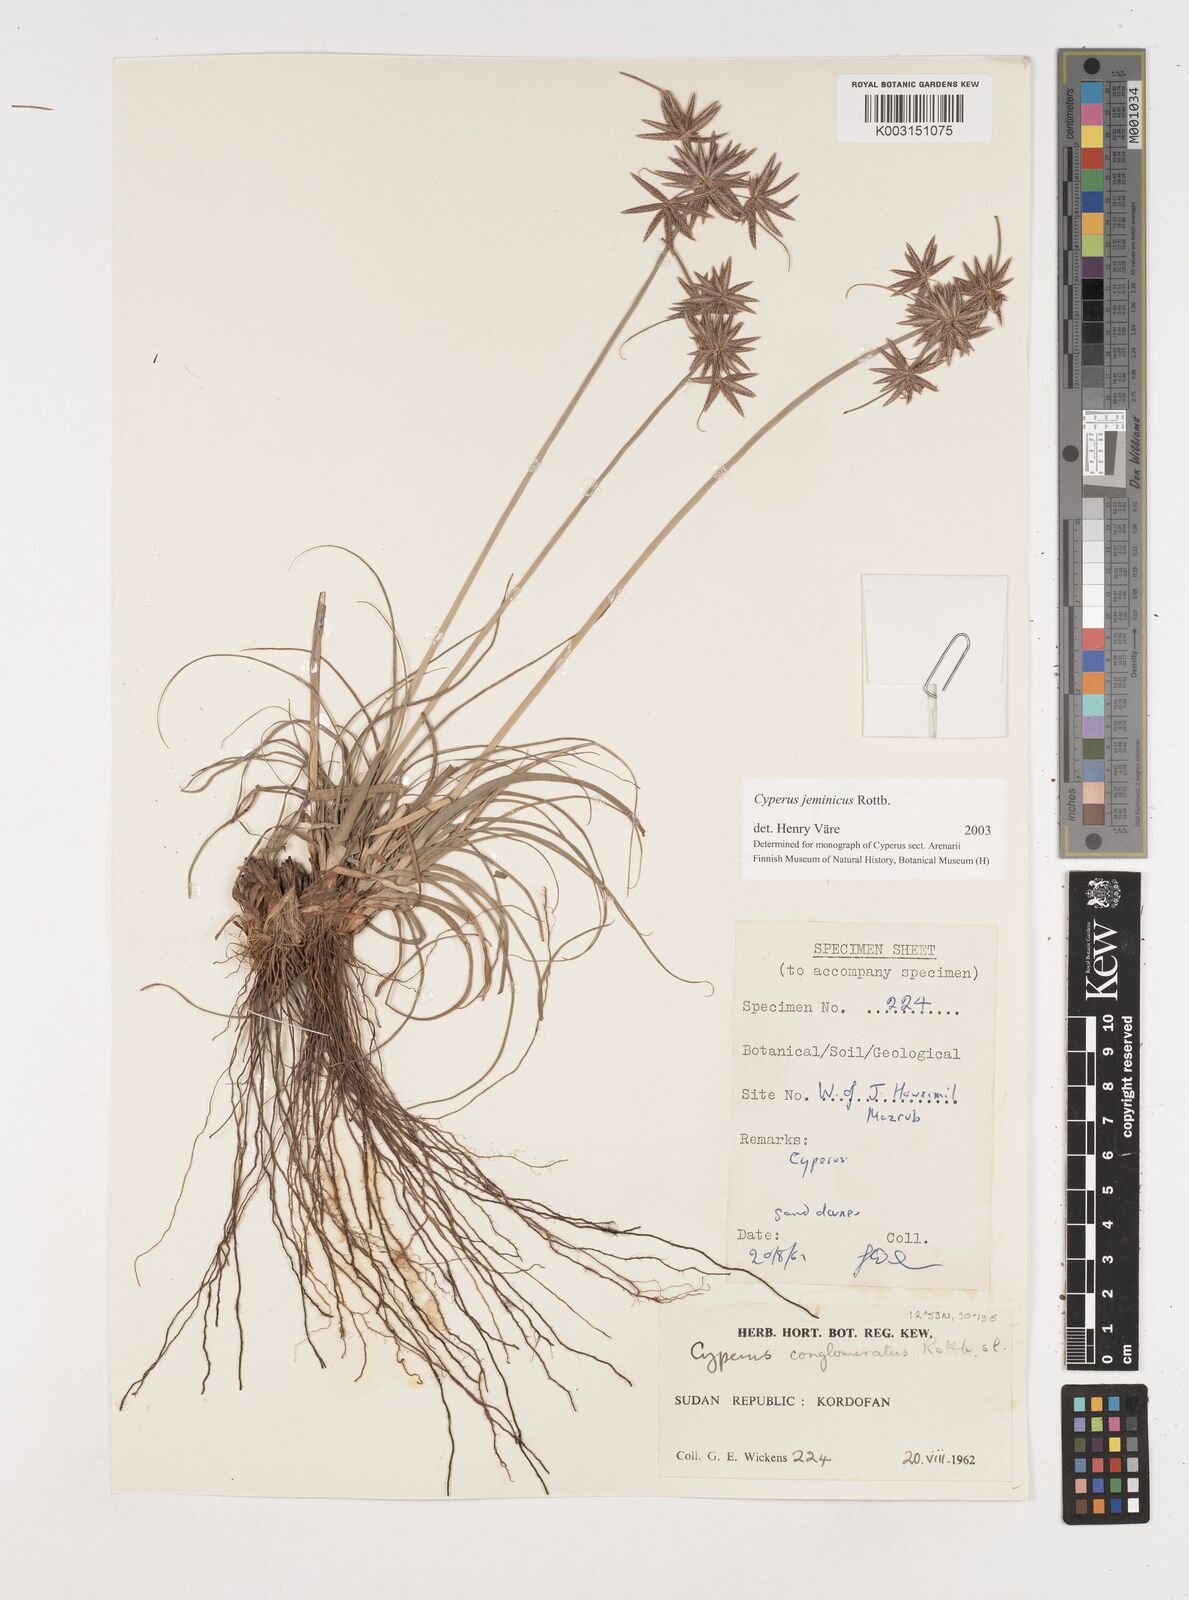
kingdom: Plantae
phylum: Tracheophyta
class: Liliopsida
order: Poales
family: Cyperaceae
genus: Cyperus
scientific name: Cyperus jeminicus
